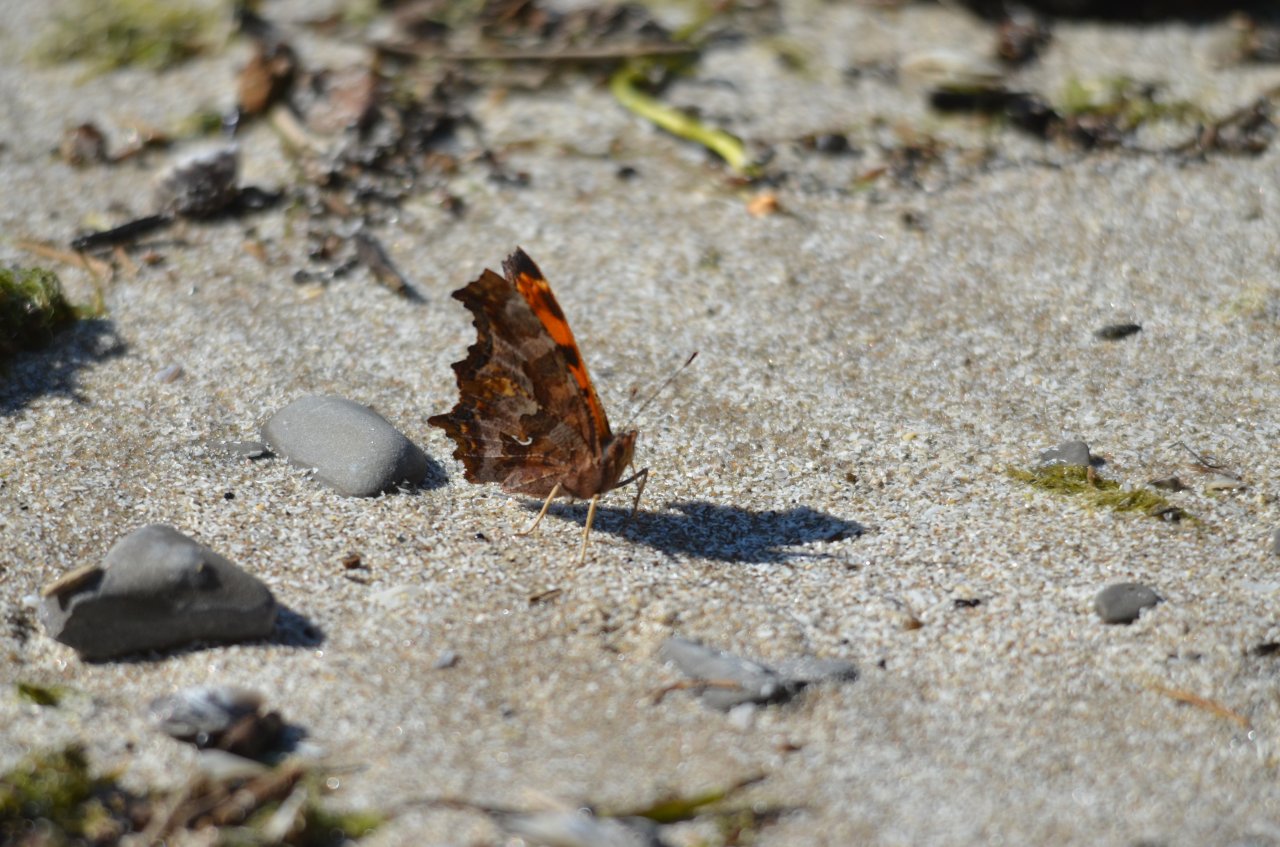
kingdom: Animalia
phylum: Arthropoda
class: Insecta
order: Lepidoptera
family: Nymphalidae
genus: Polygonia
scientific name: Polygonia comma
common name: Eastern Comma
